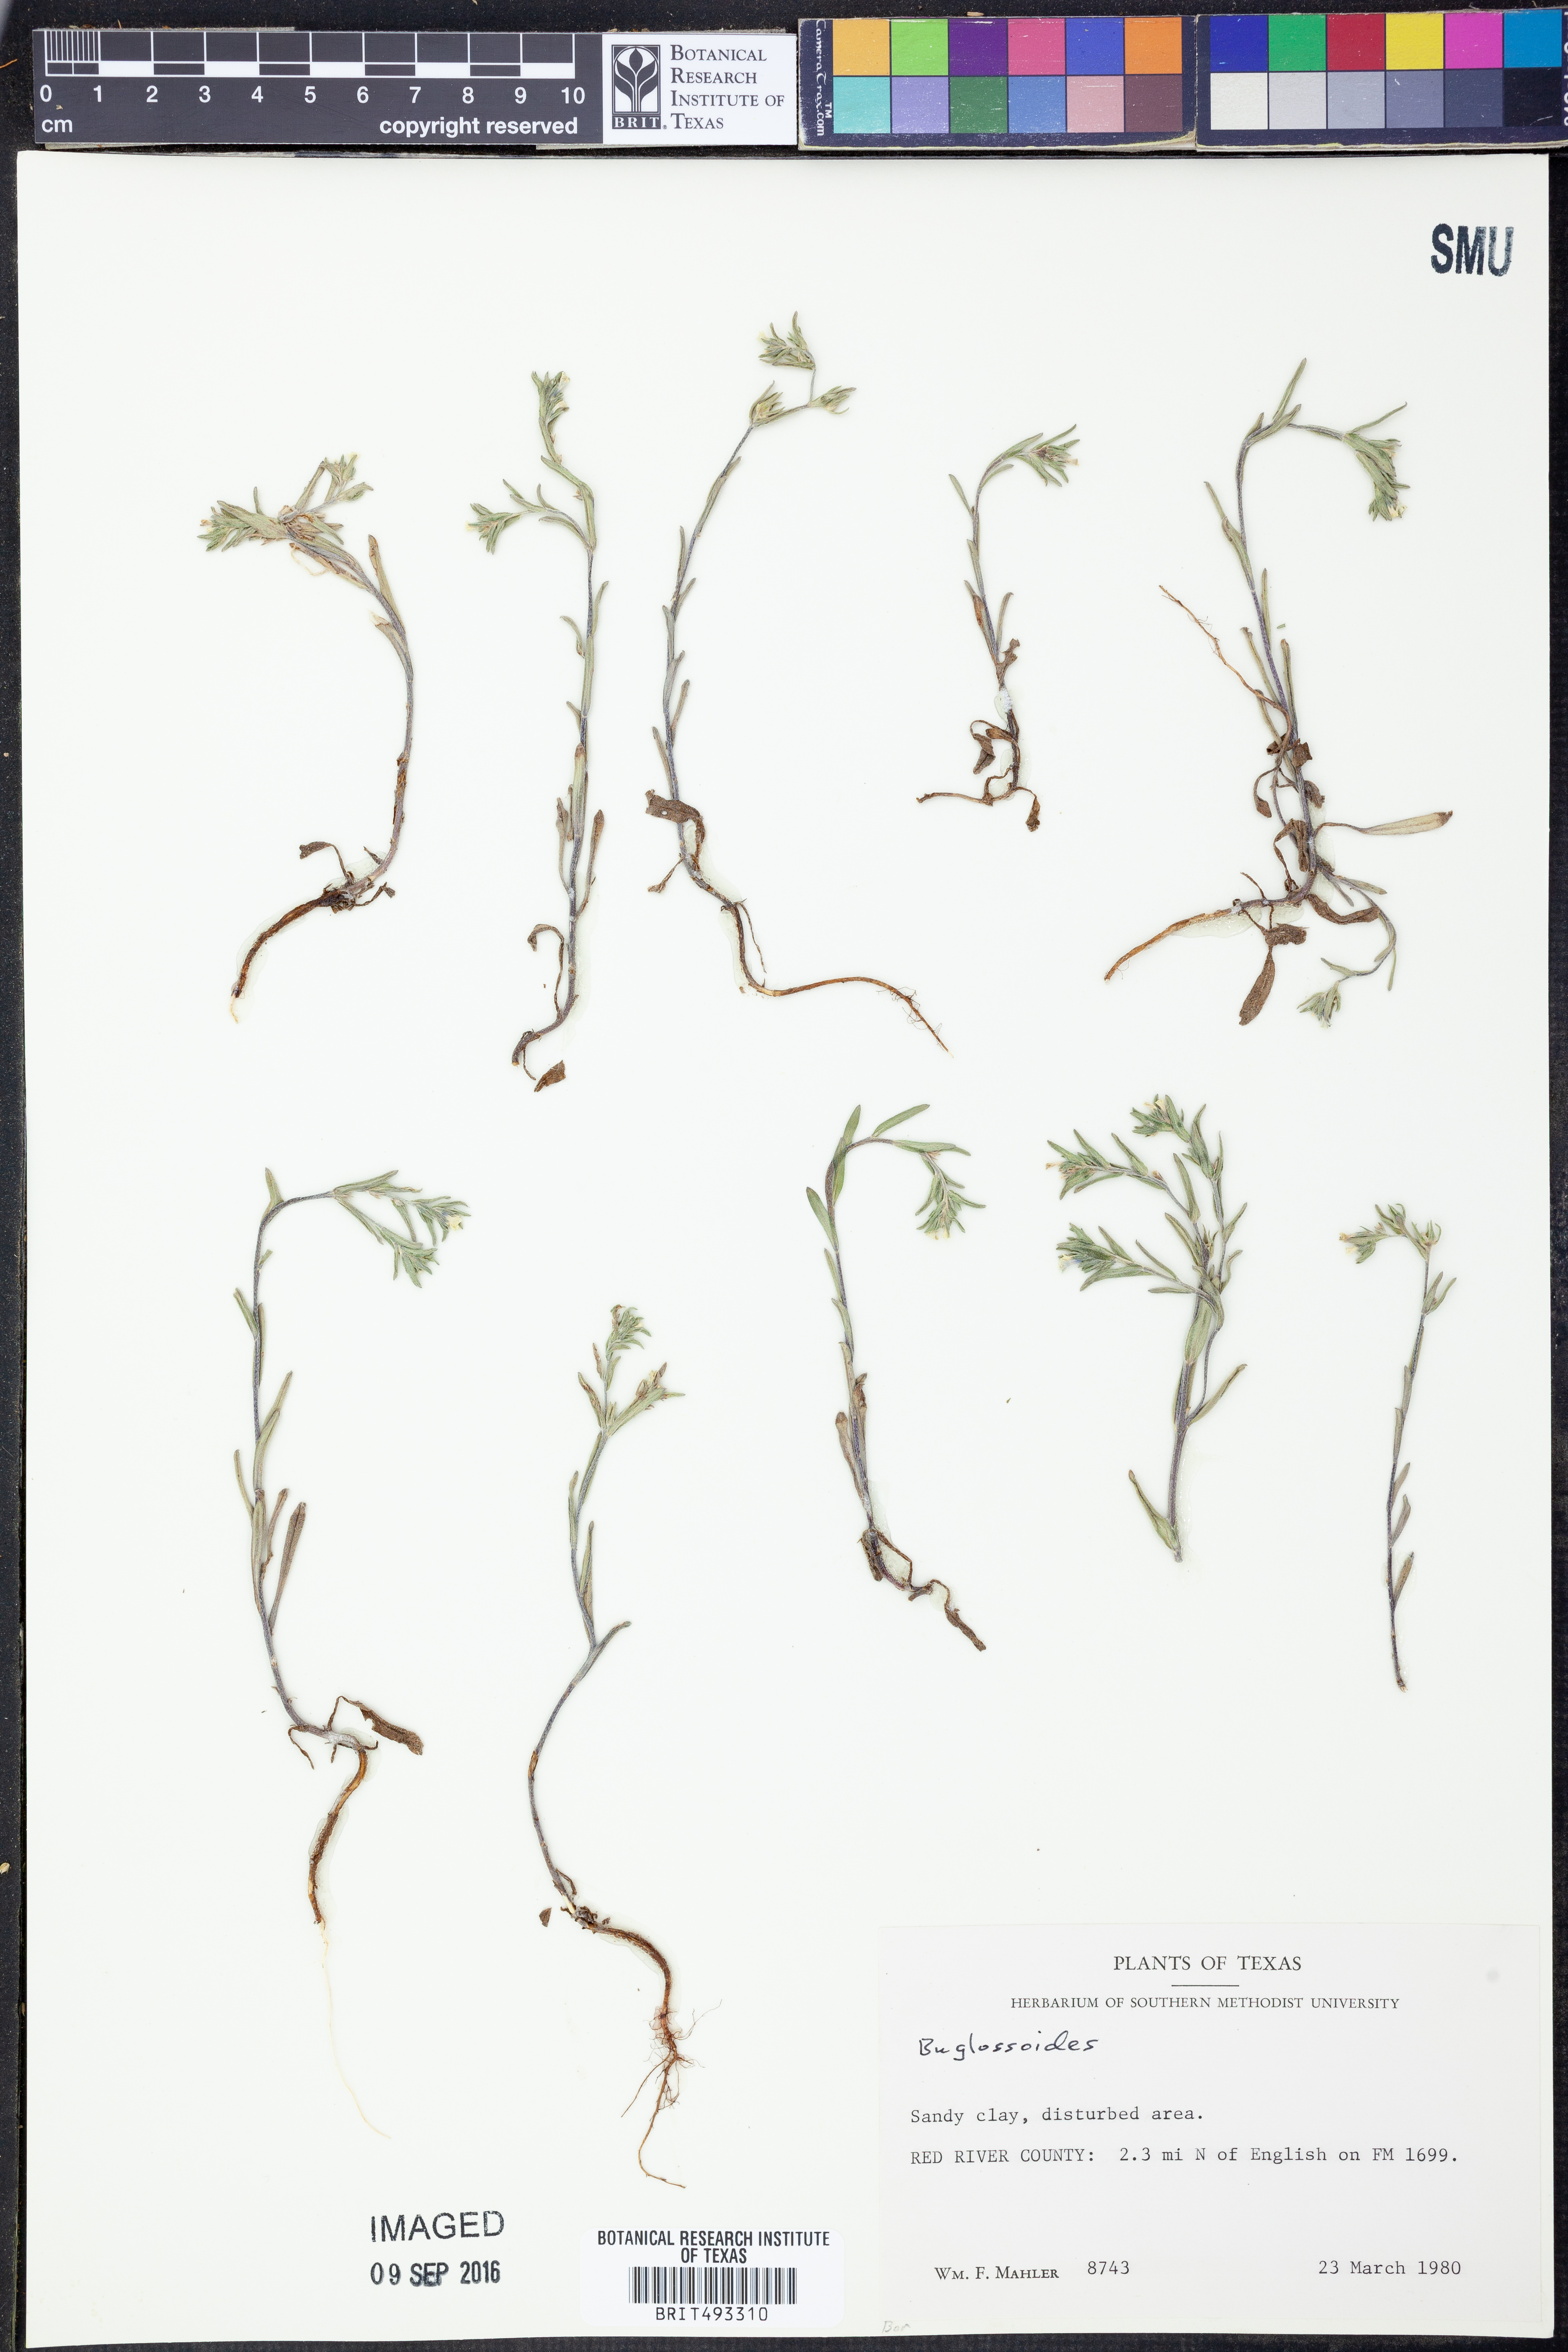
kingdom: Plantae
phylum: Tracheophyta
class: Magnoliopsida
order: Boraginales
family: Boraginaceae
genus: Buglossoides
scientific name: Buglossoides
